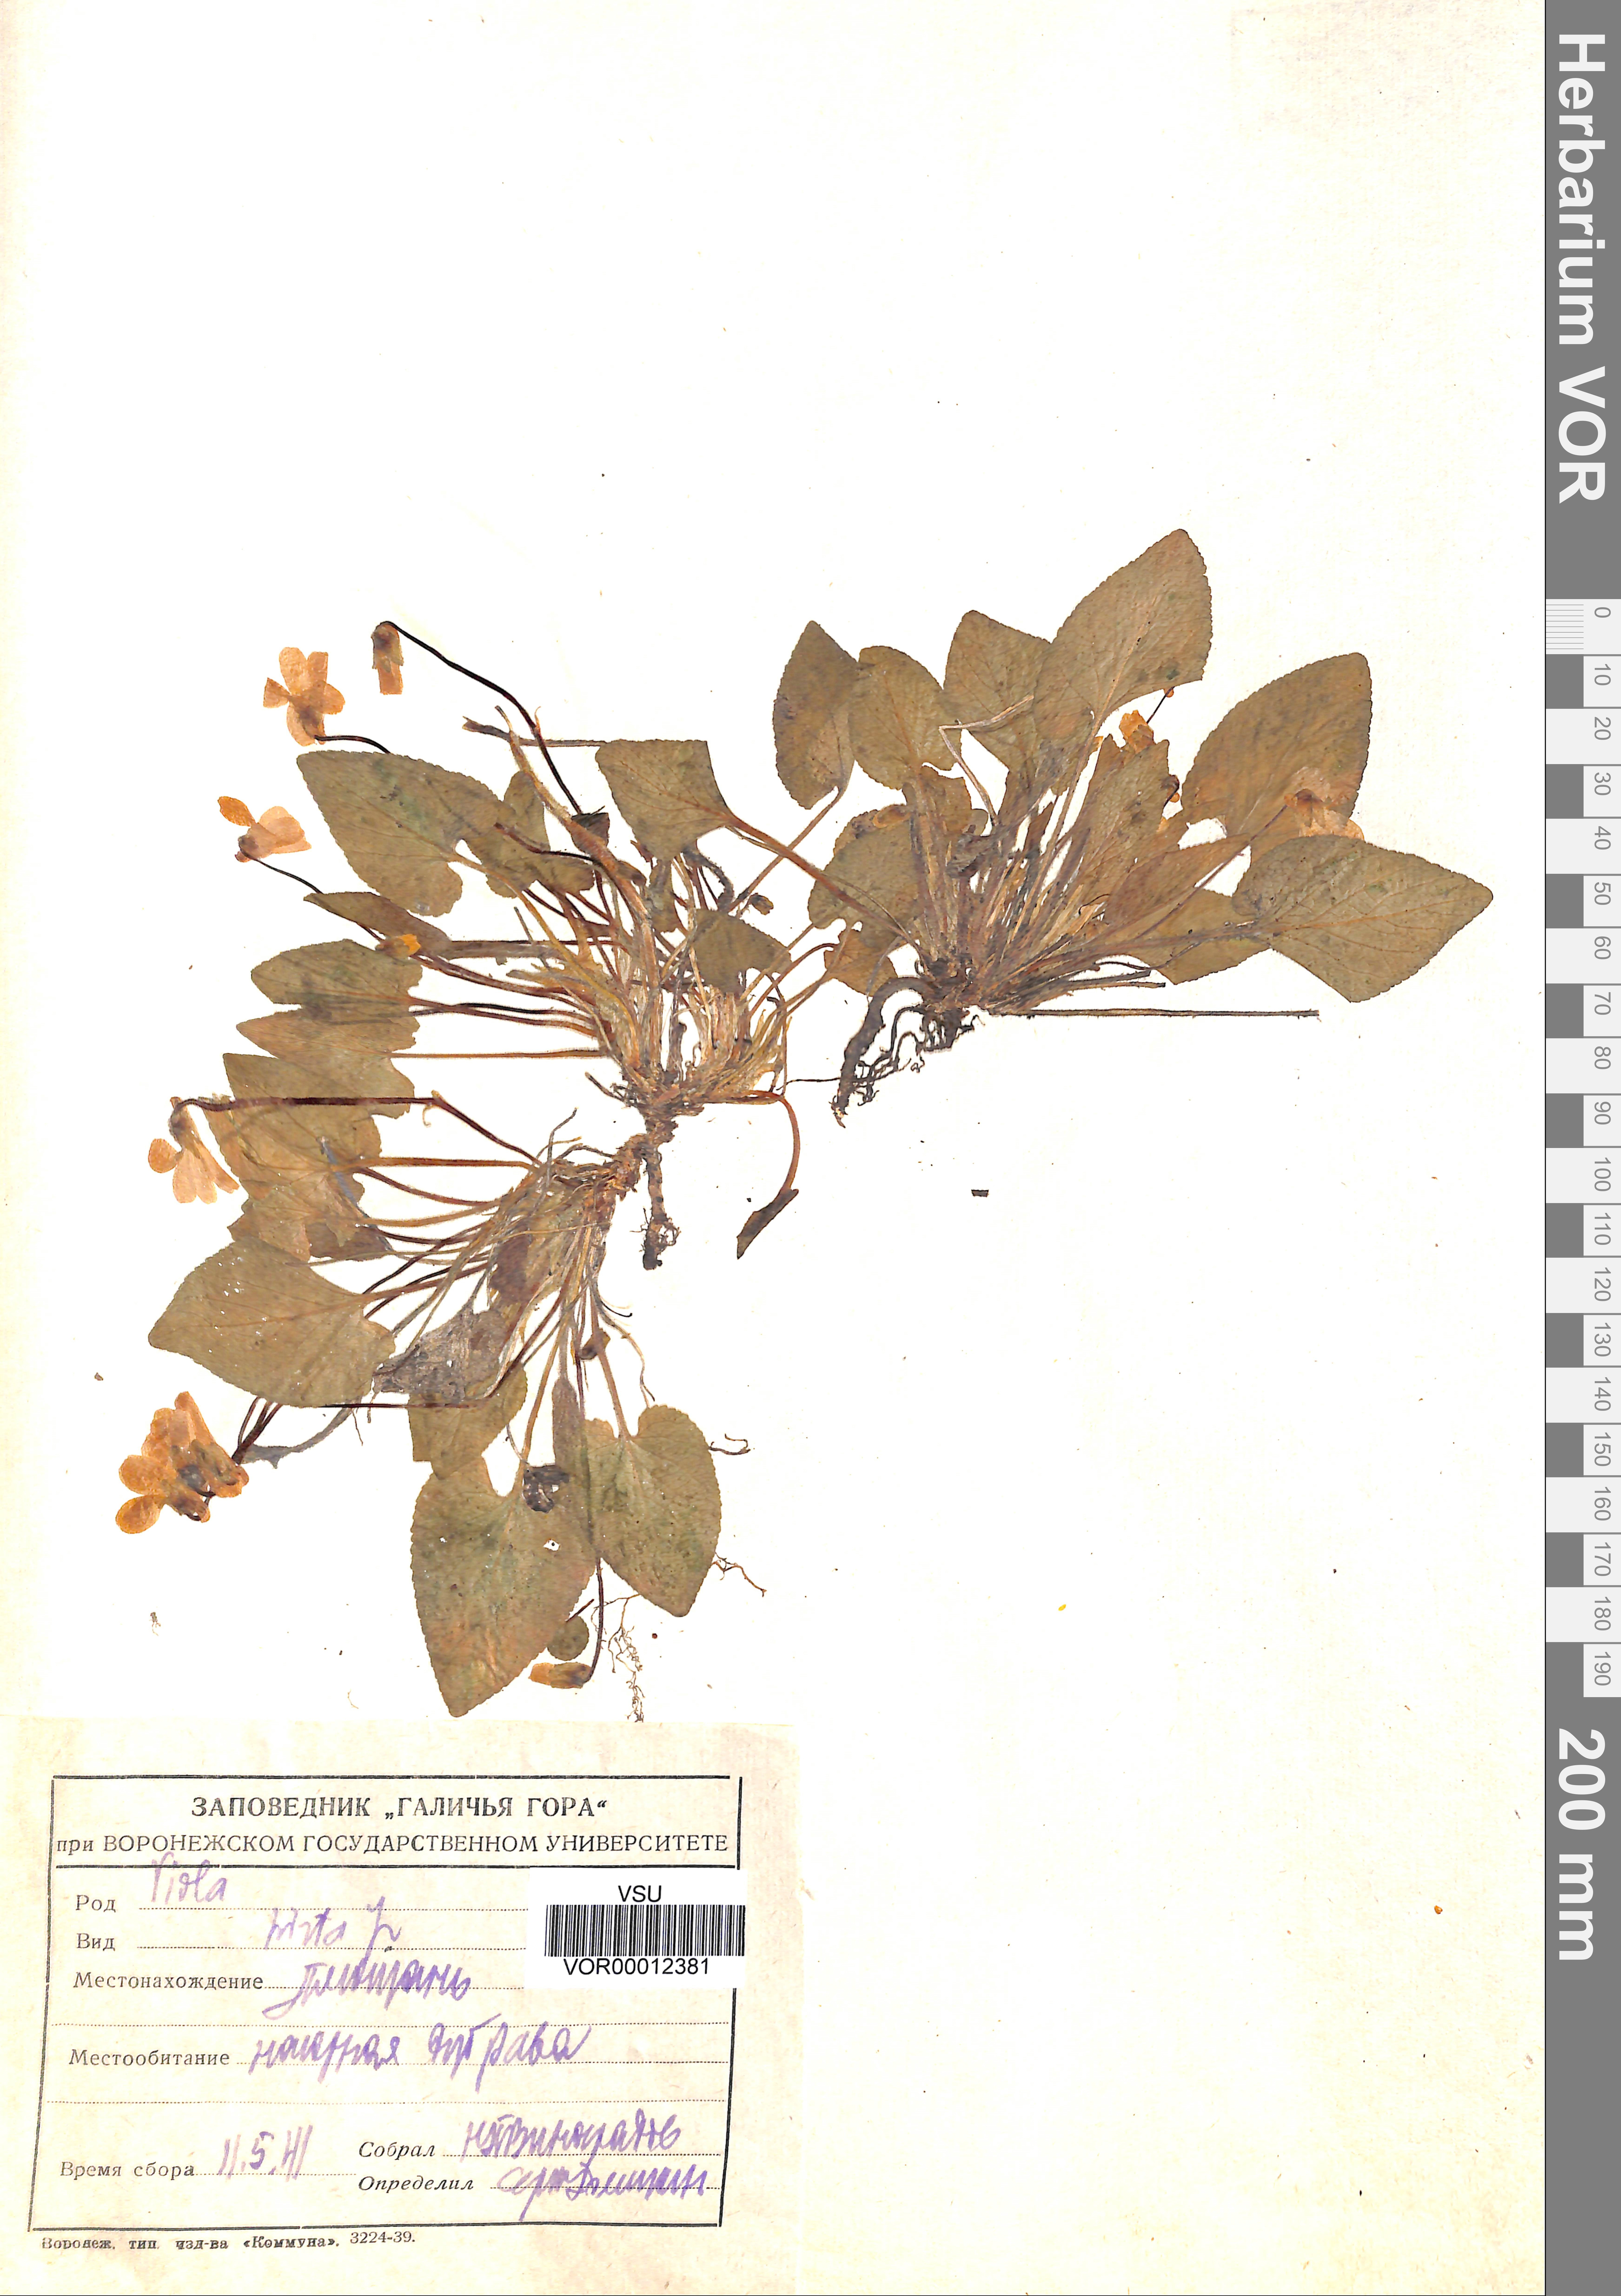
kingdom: Plantae
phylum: Tracheophyta
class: Magnoliopsida
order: Malpighiales
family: Violaceae
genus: Viola
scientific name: Viola hirta
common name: Hairy violet
